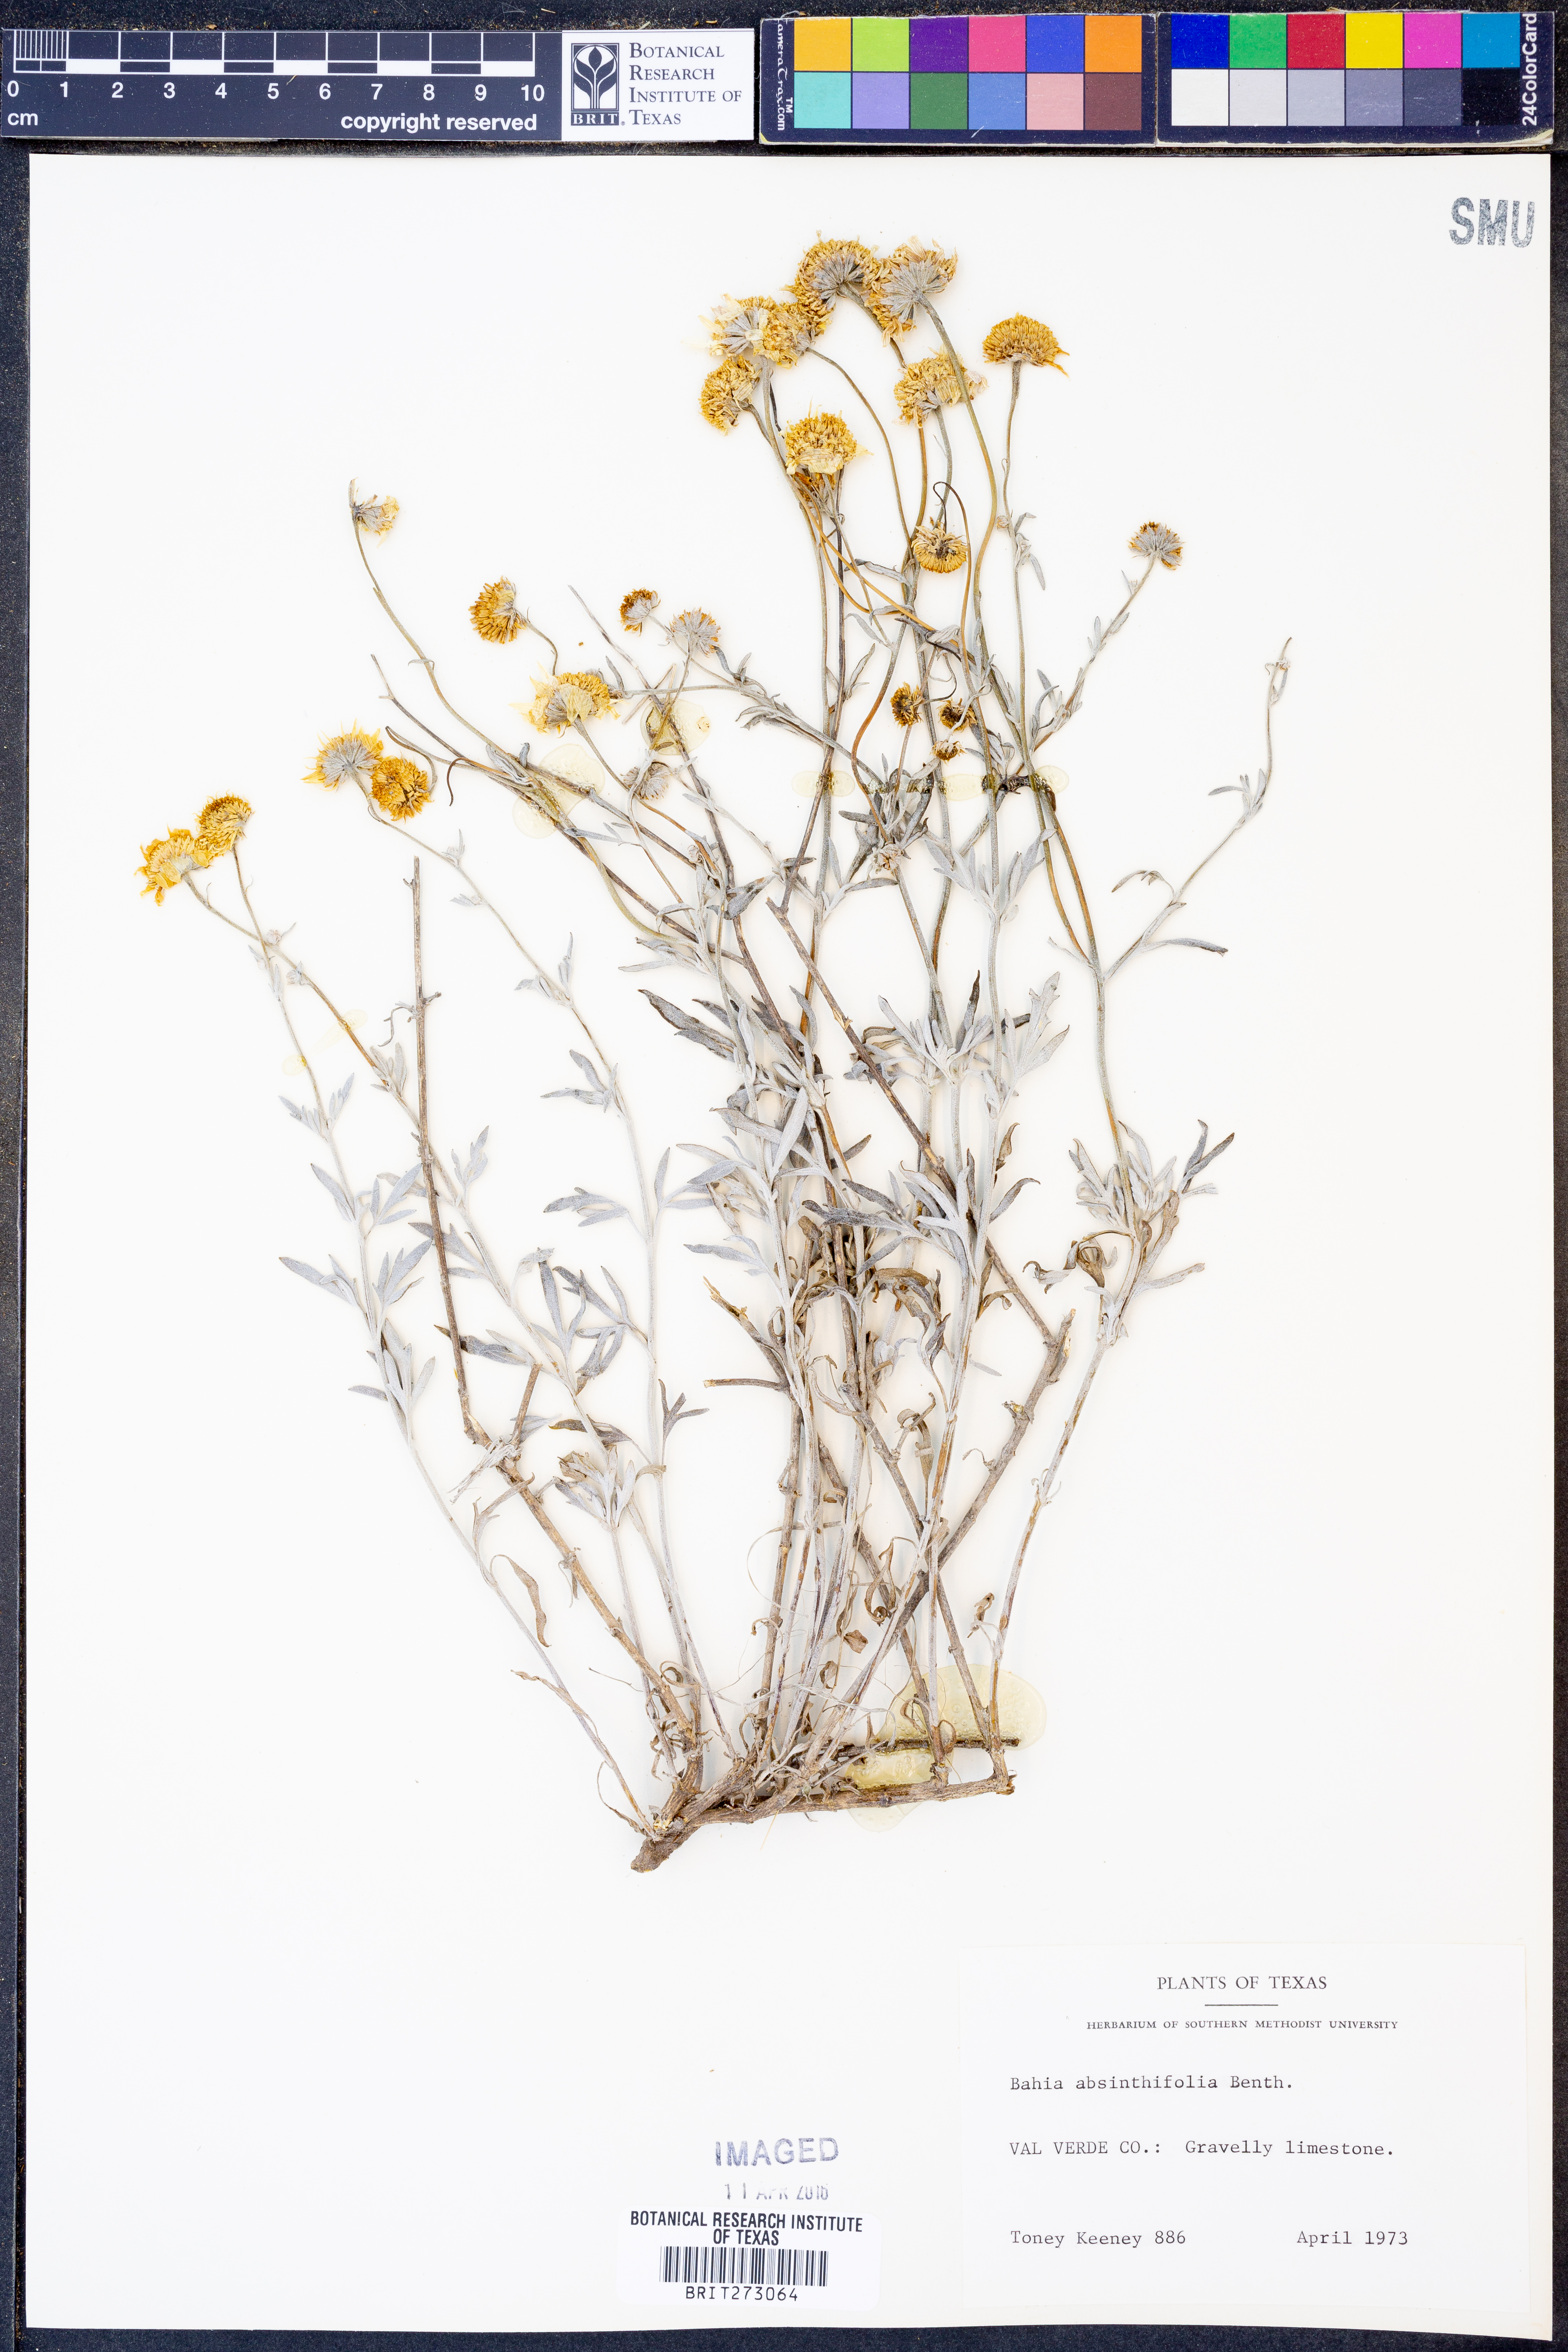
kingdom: Plantae
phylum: Tracheophyta
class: Magnoliopsida
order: Asterales
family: Asteraceae
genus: Picradeniopsis
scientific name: Picradeniopsis absinthifolia
